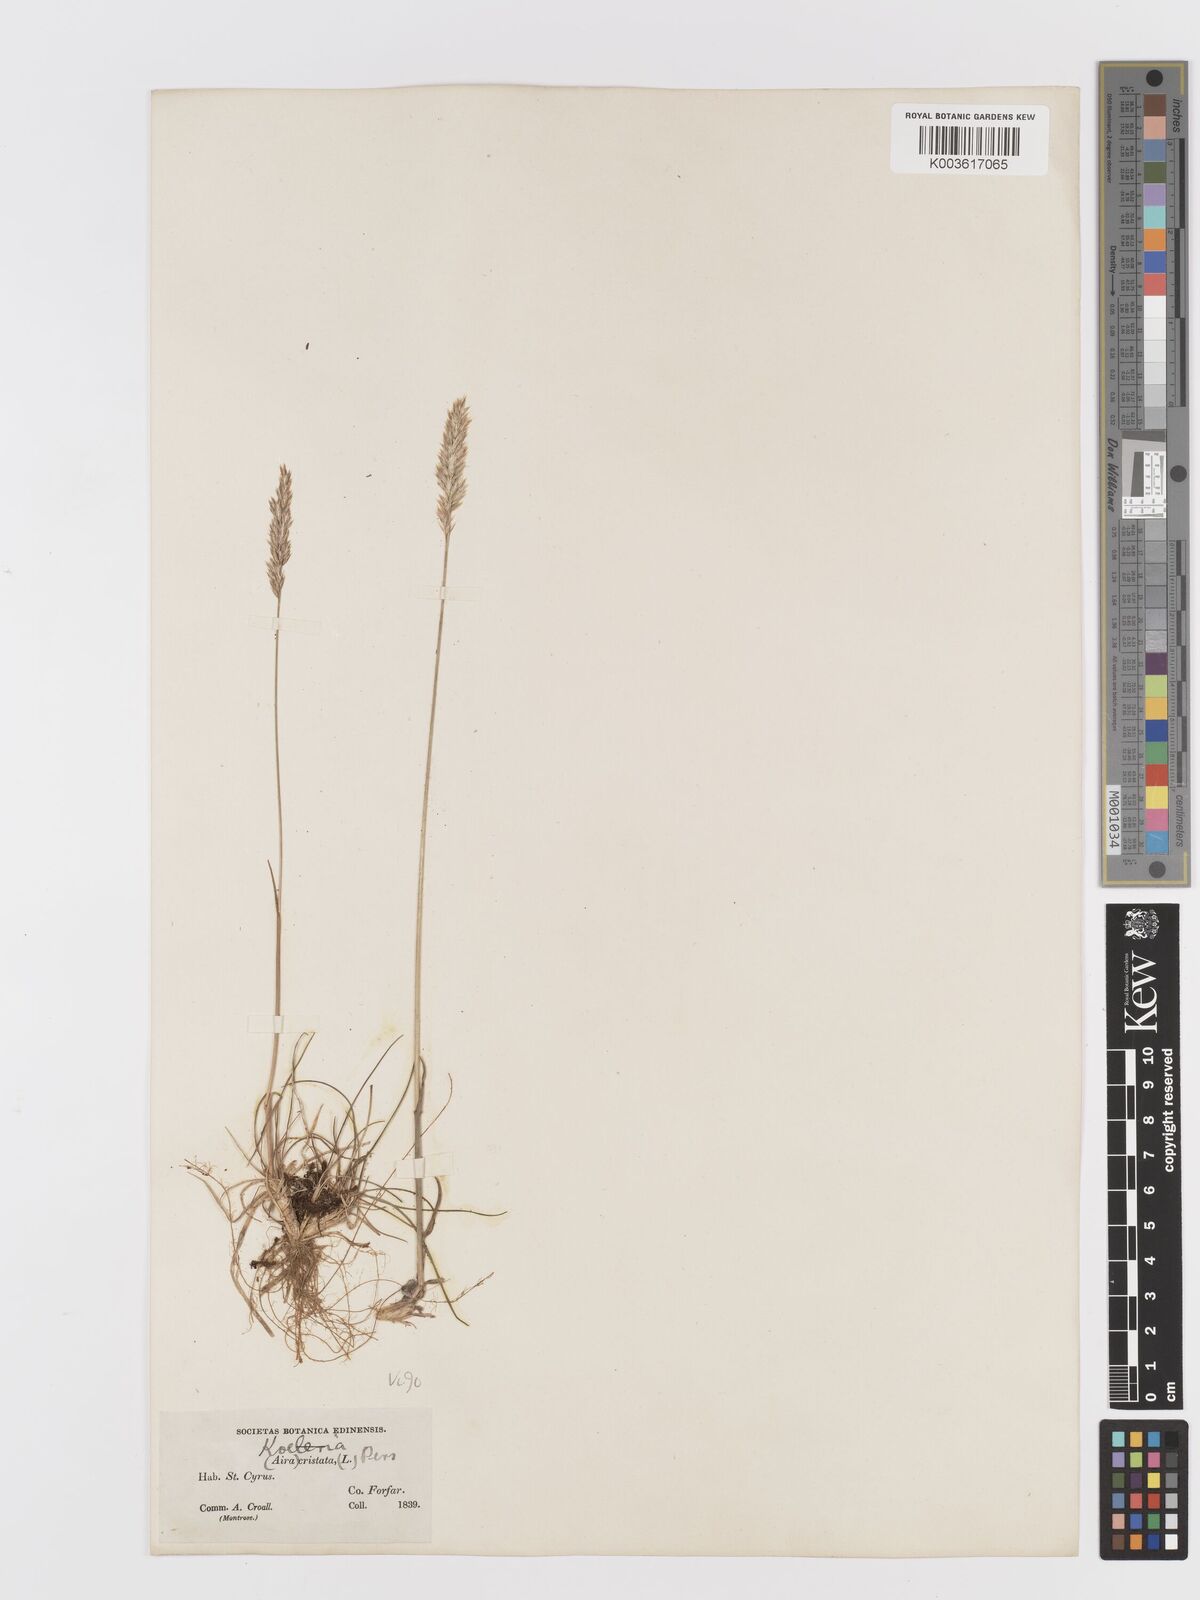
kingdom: Plantae
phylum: Tracheophyta
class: Liliopsida
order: Poales
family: Poaceae
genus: Koeleria
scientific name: Koeleria macrantha
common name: Crested hair-grass
